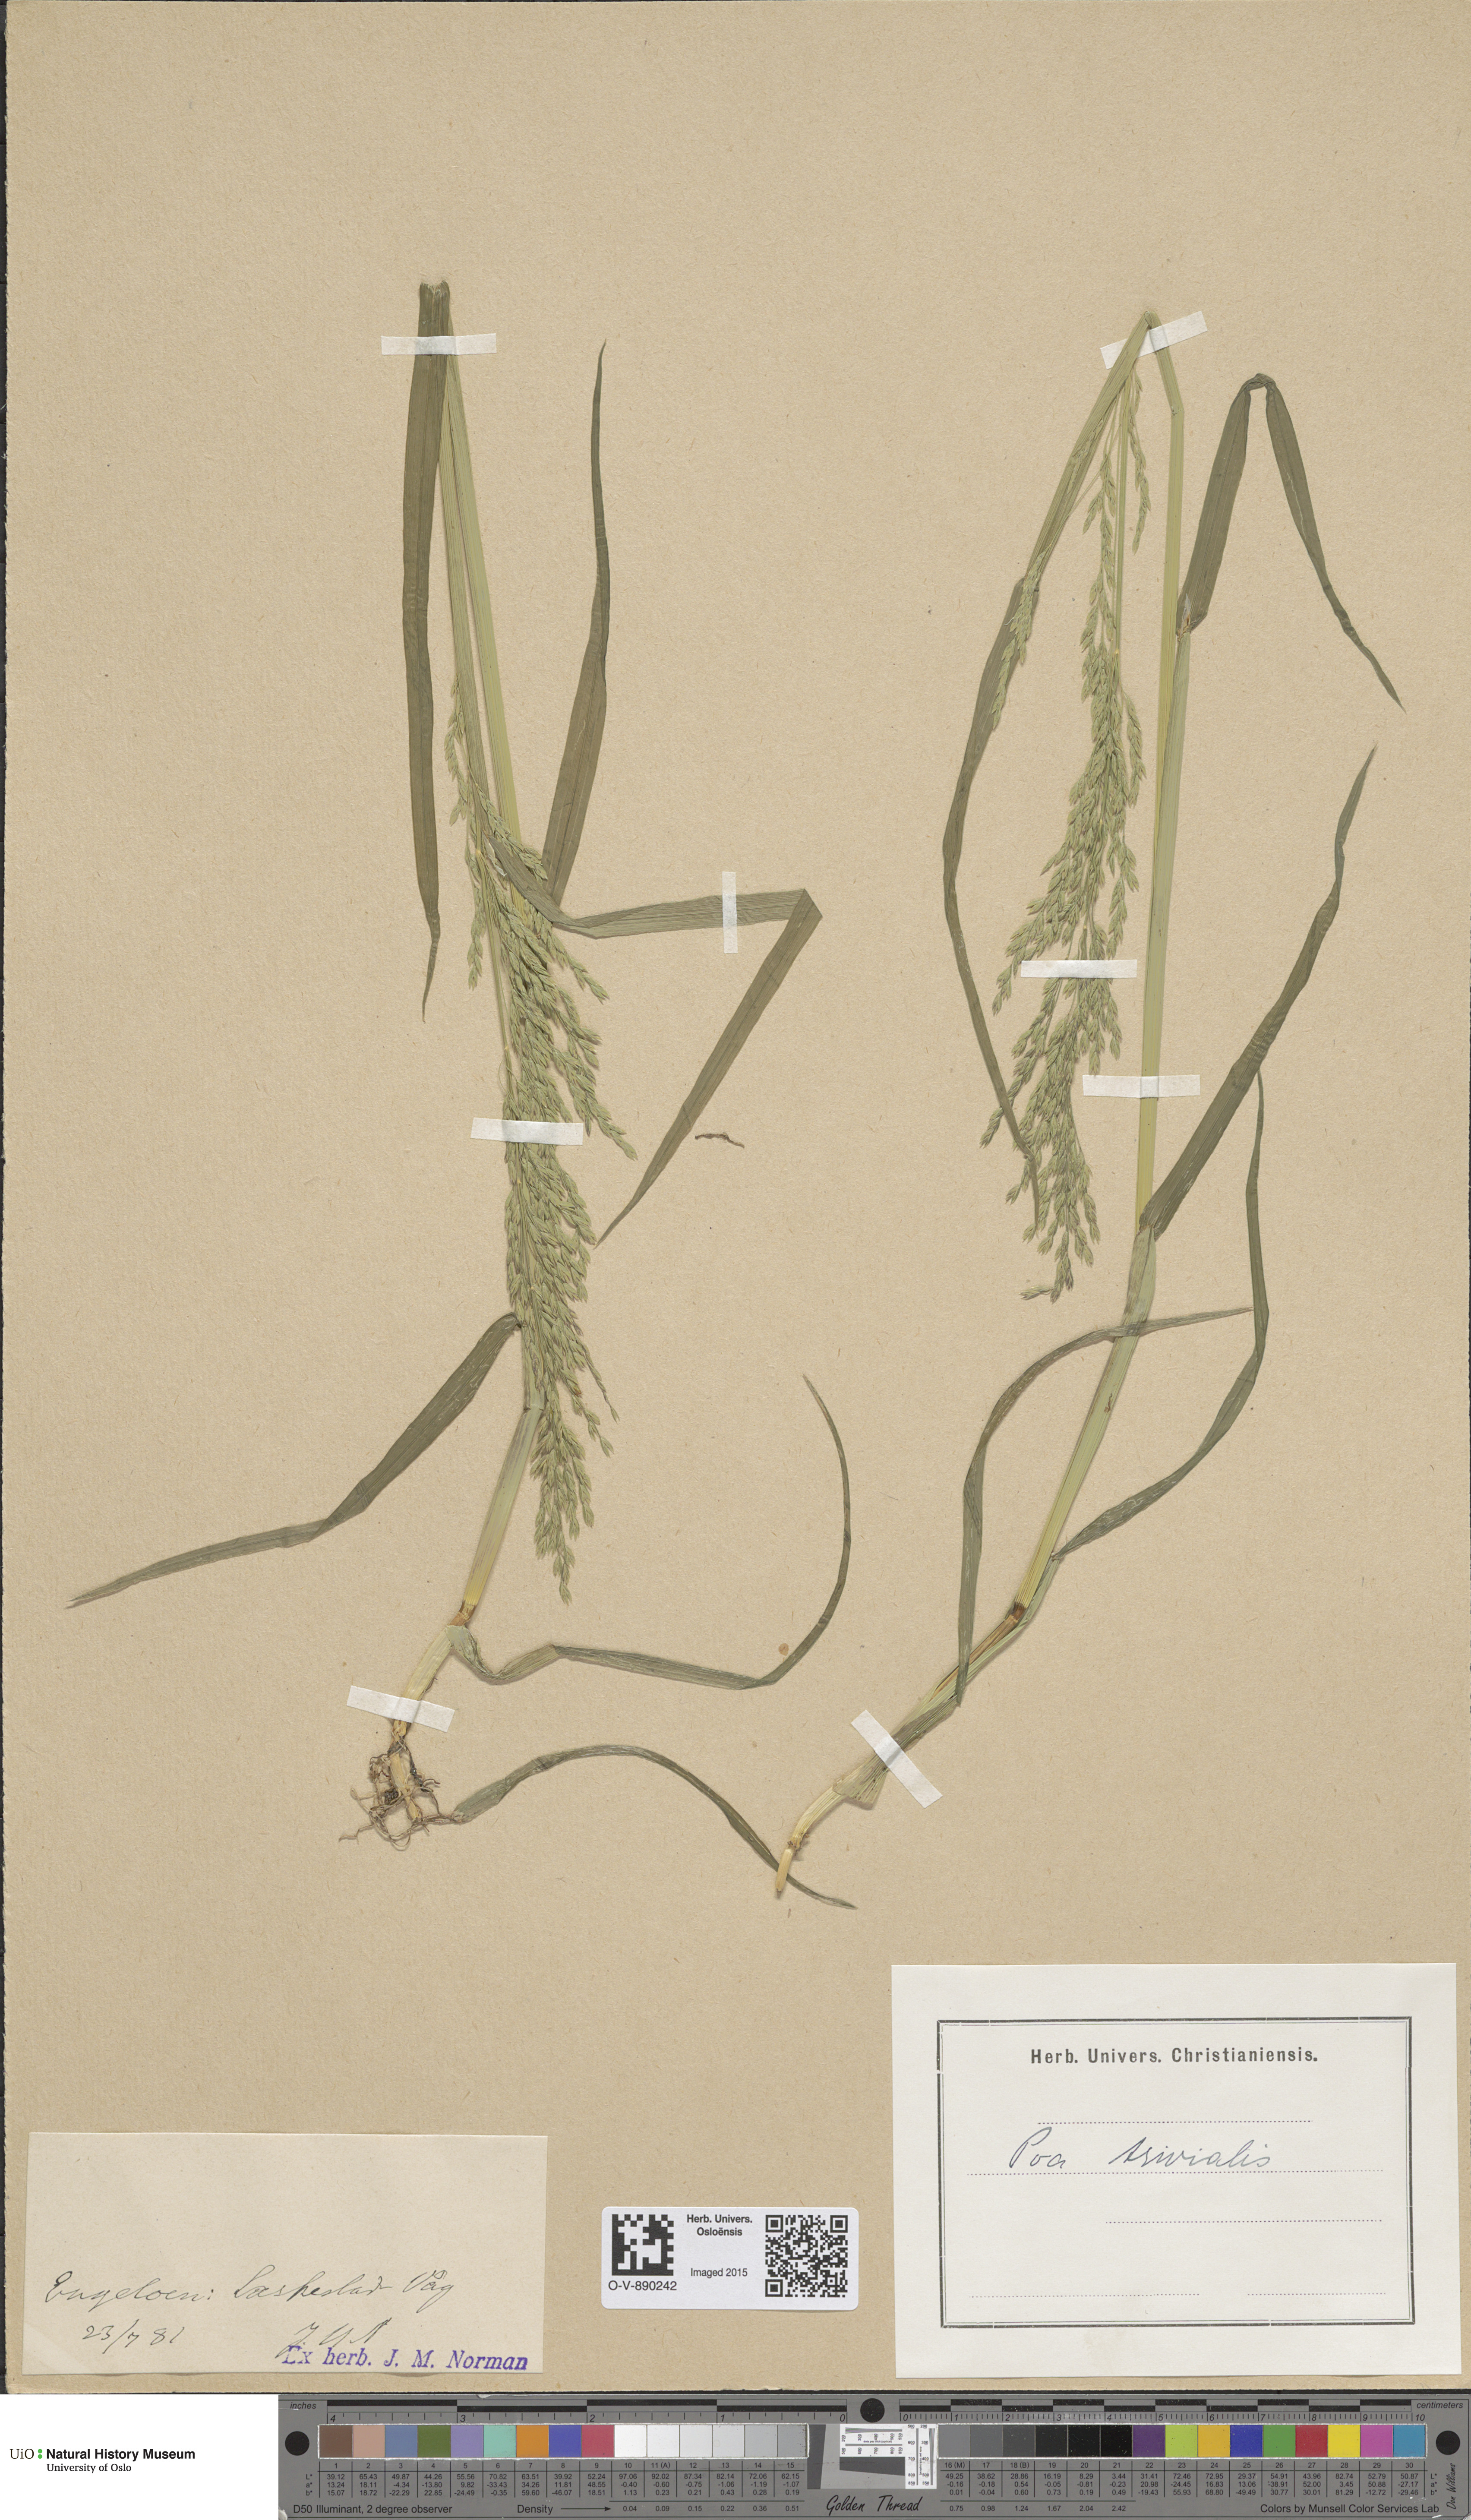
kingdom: Plantae
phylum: Tracheophyta
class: Liliopsida
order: Poales
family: Poaceae
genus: Poa
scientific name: Poa trivialis
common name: Rough bluegrass
